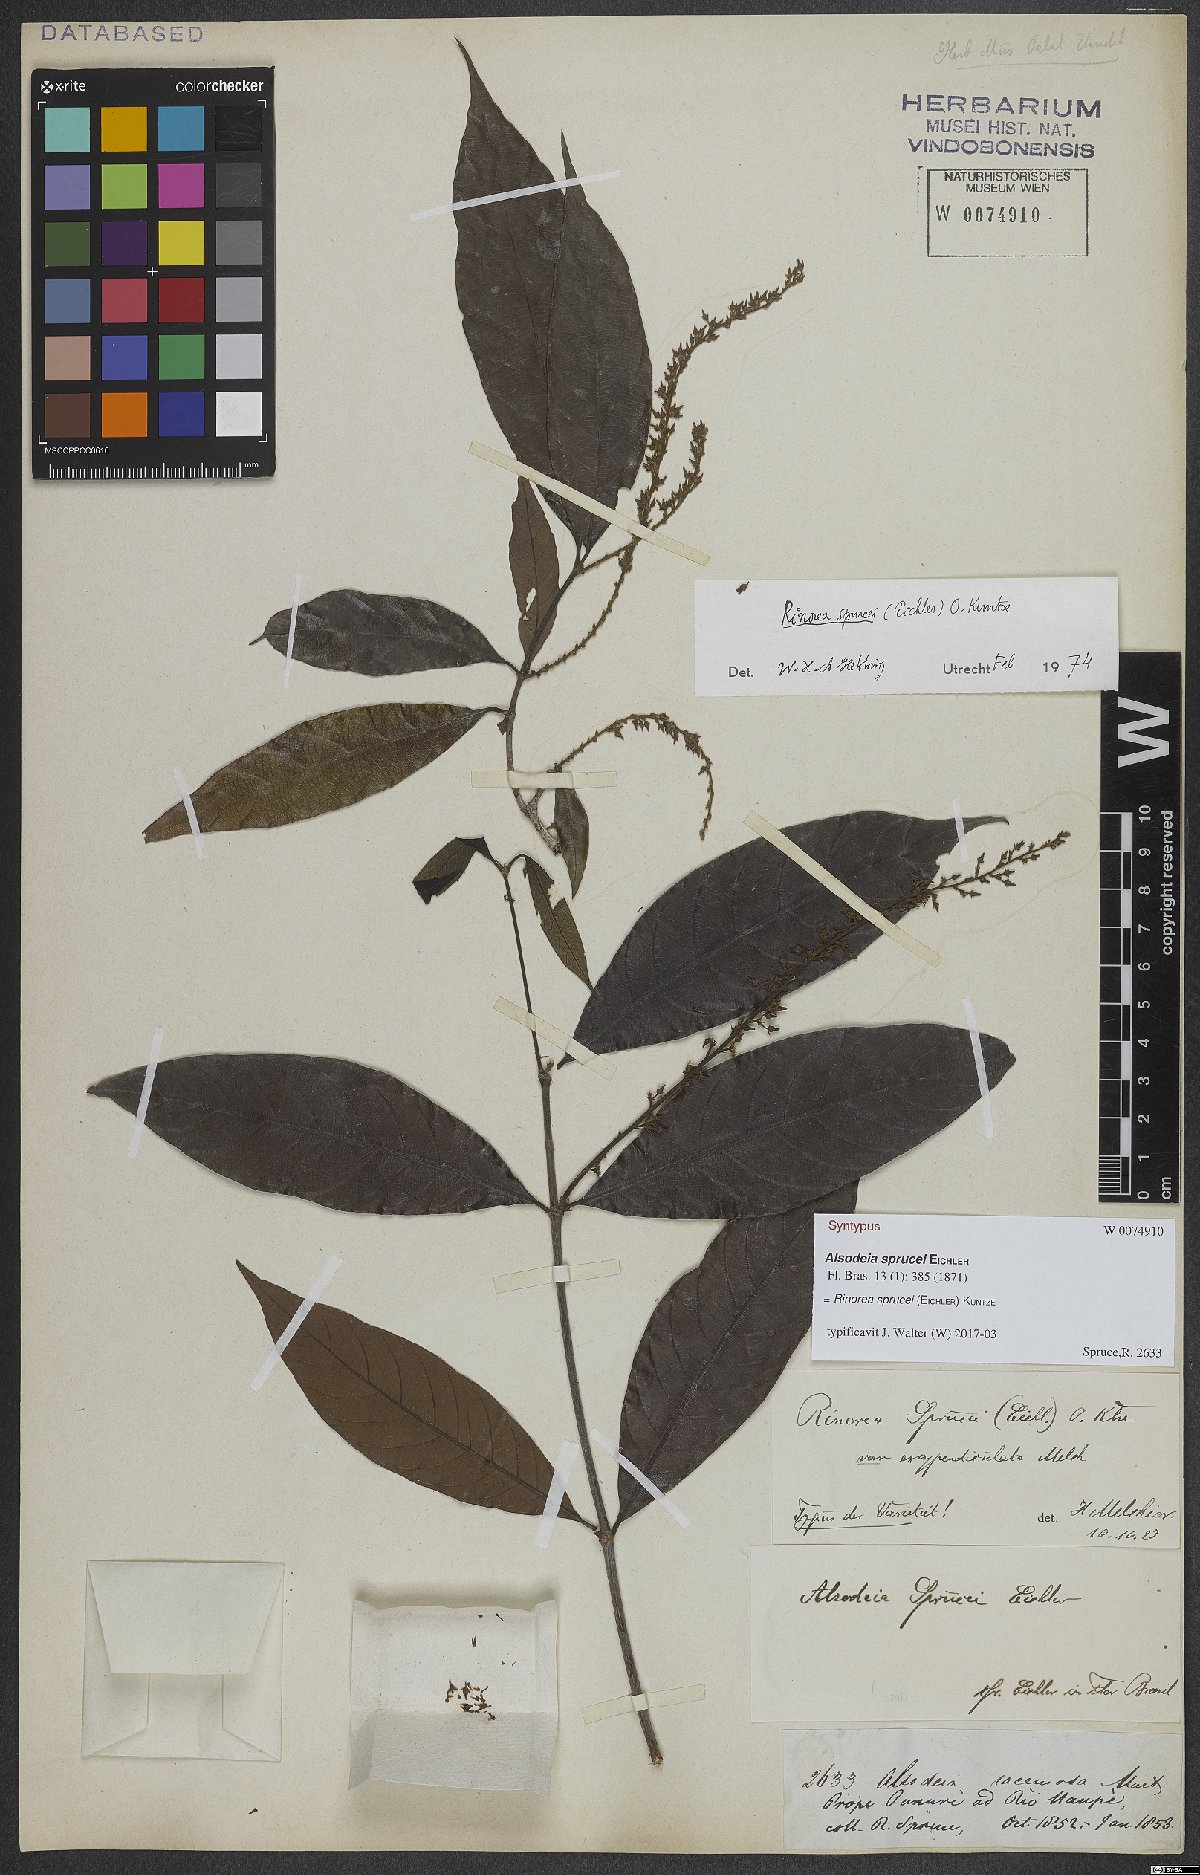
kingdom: Plantae
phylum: Tracheophyta
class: Magnoliopsida
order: Malpighiales
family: Violaceae
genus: Rinorea
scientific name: Rinorea sprucei
